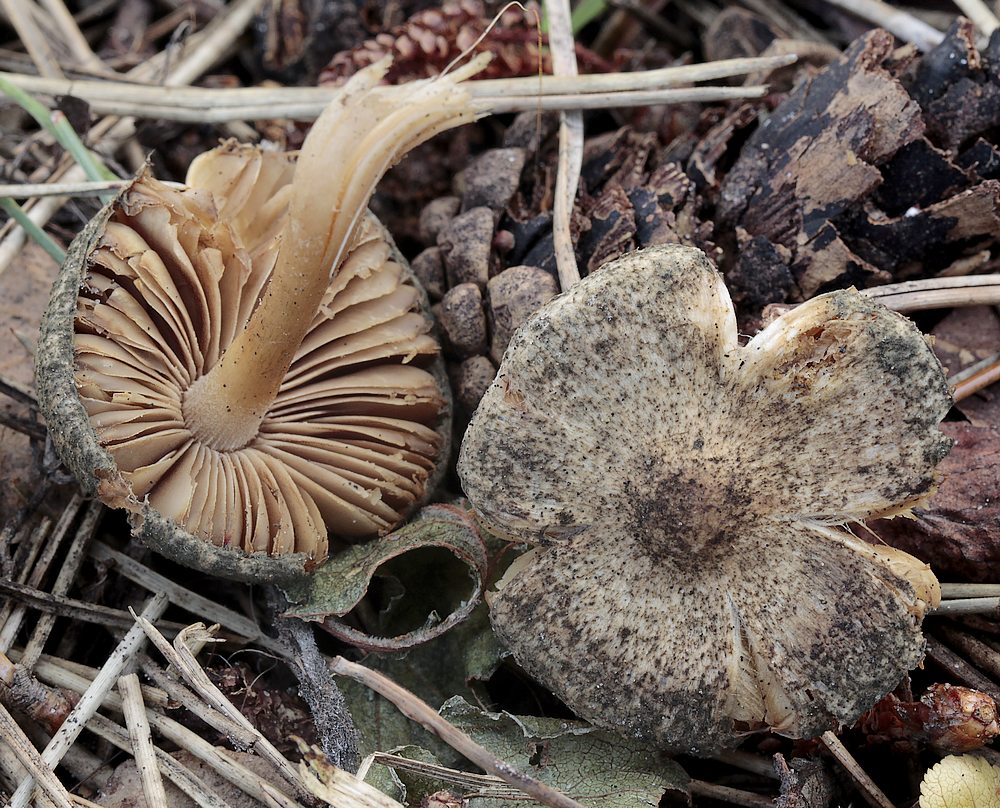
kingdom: Fungi
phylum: Basidiomycota
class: Agaricomycetes
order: Agaricales
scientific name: Agaricales
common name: champignonordenen
